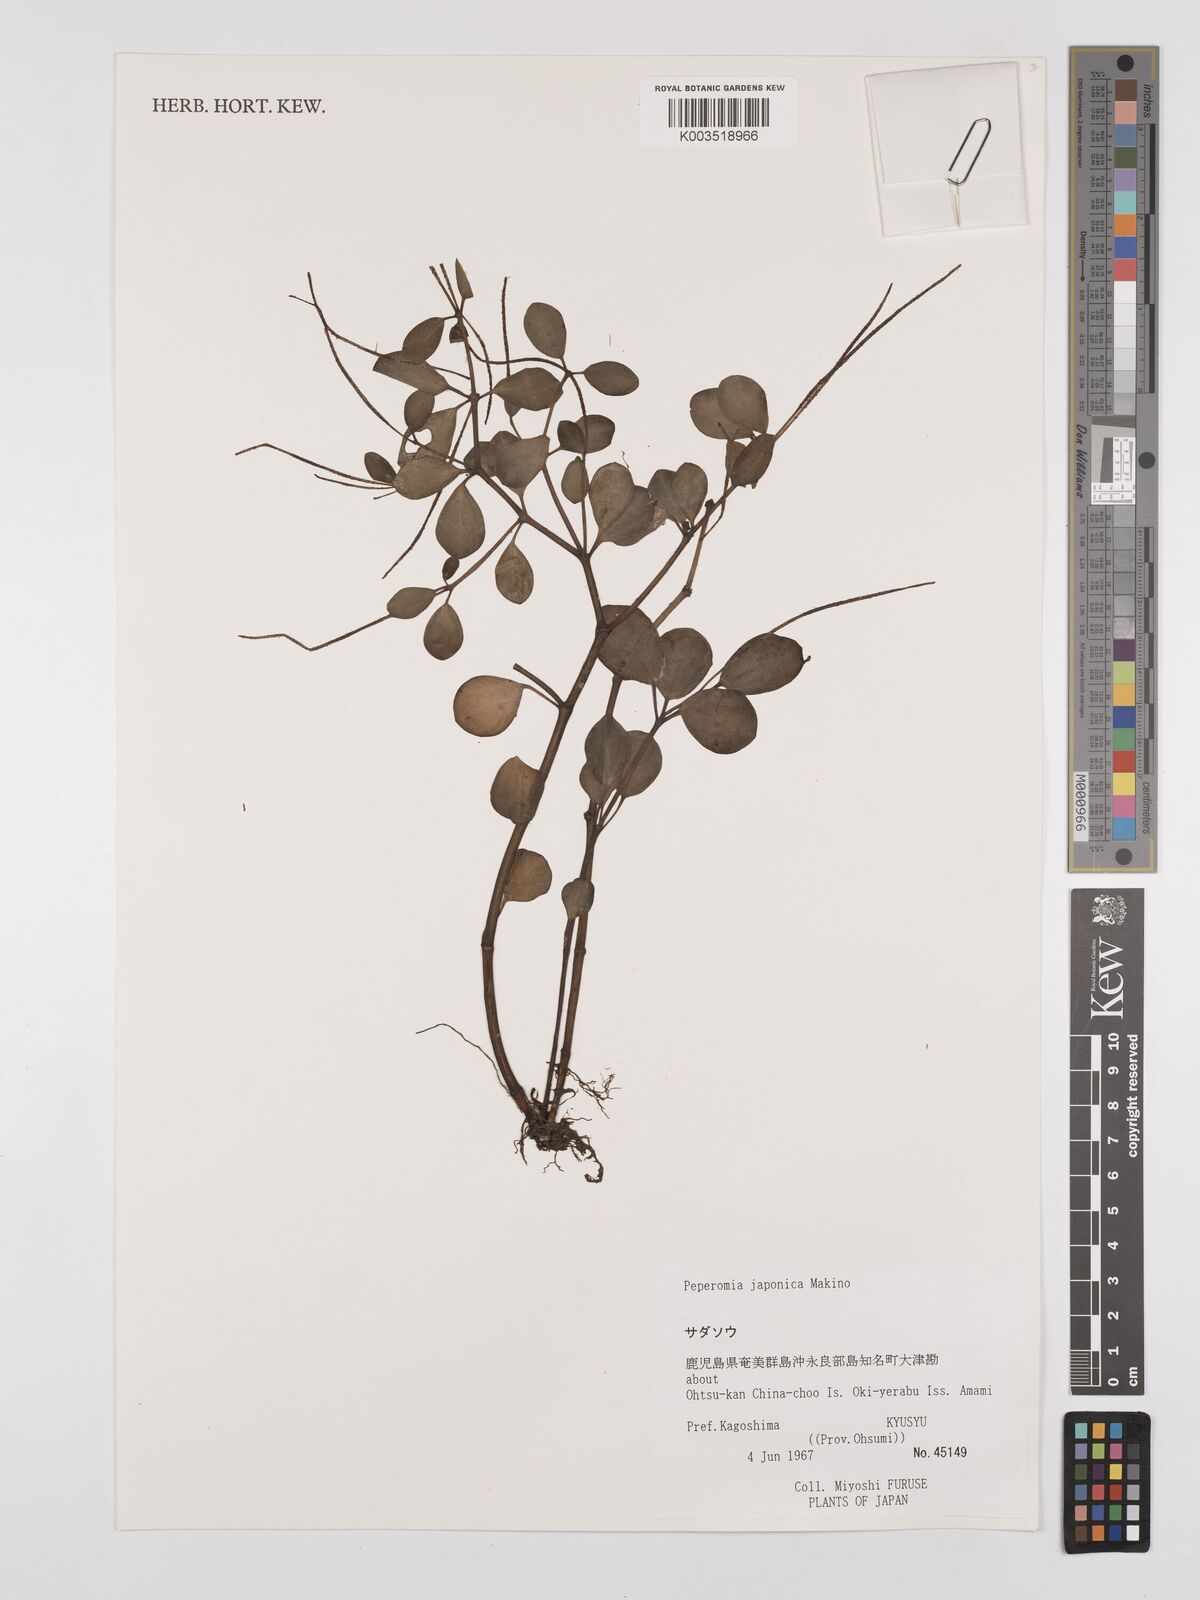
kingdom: Plantae
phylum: Tracheophyta
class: Magnoliopsida
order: Piperales
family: Piperaceae
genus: Peperomia
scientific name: Peperomia japonica
